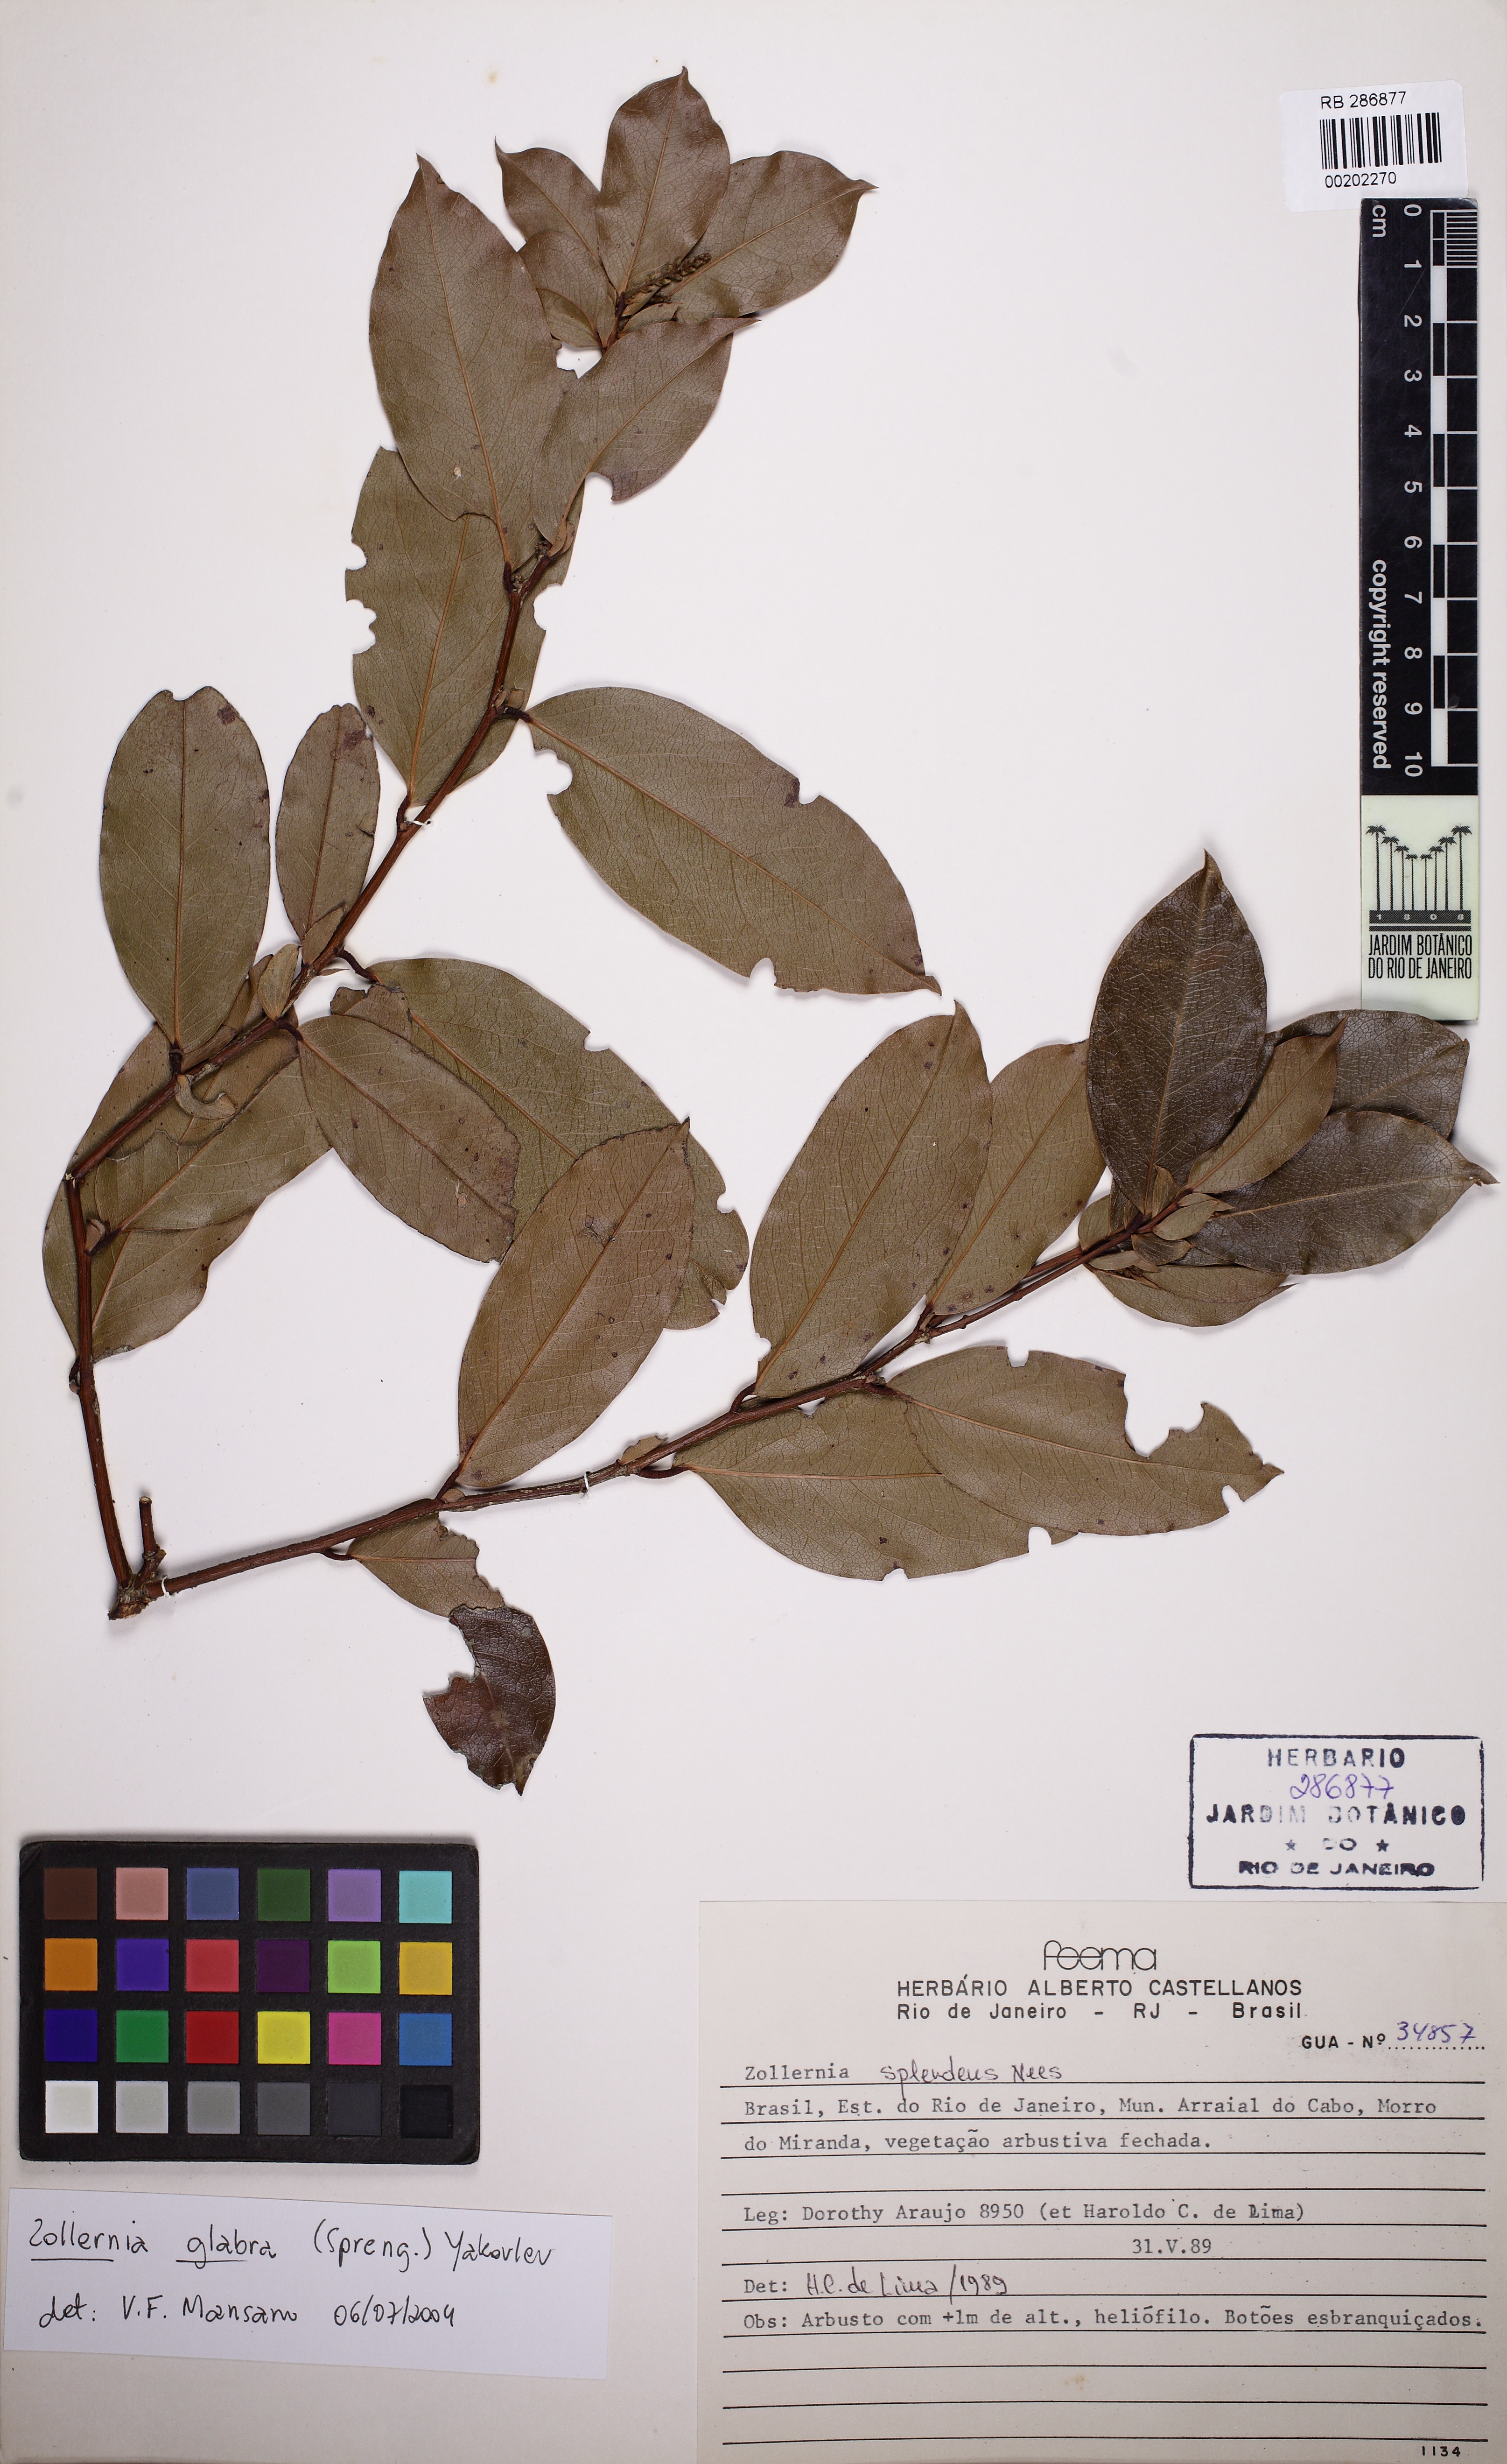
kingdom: Plantae
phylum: Tracheophyta
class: Magnoliopsida
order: Fabales
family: Fabaceae
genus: Zollernia
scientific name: Zollernia glabra
